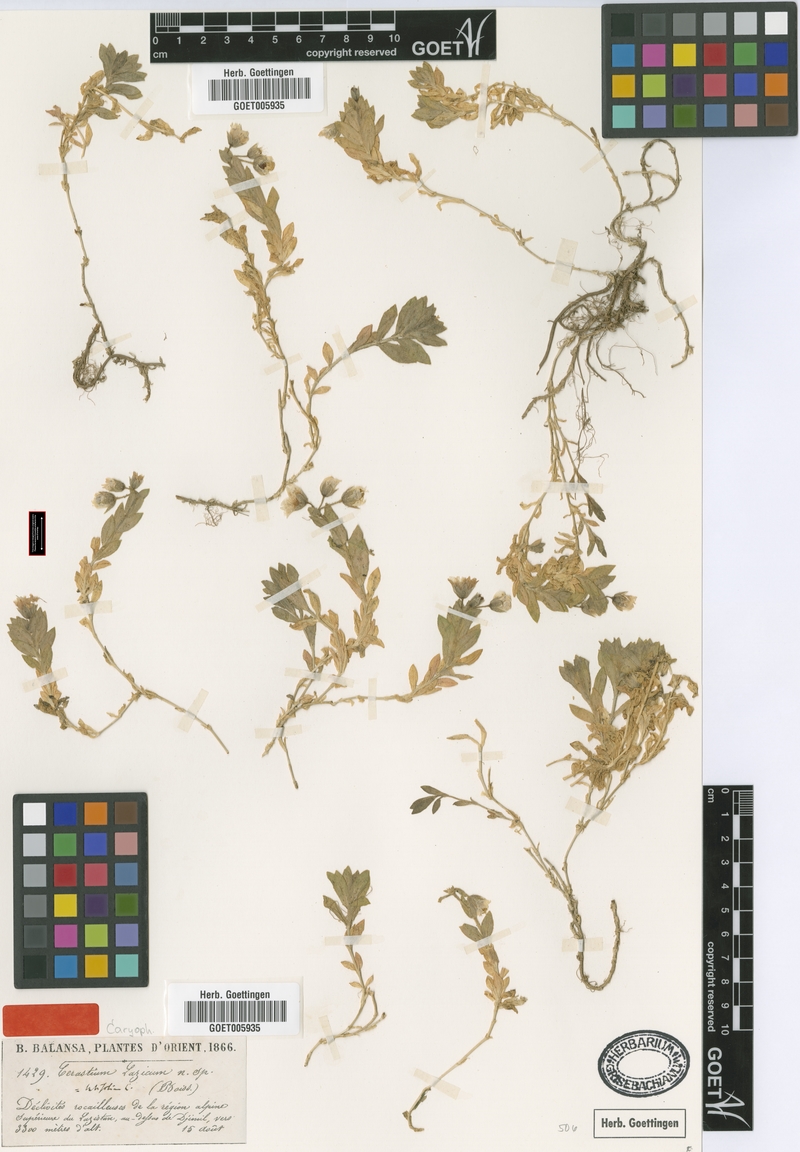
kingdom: Plantae
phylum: Tracheophyta
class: Magnoliopsida
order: Caryophyllales
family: Caryophyllaceae
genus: Cerastium
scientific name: Cerastium lazicum
